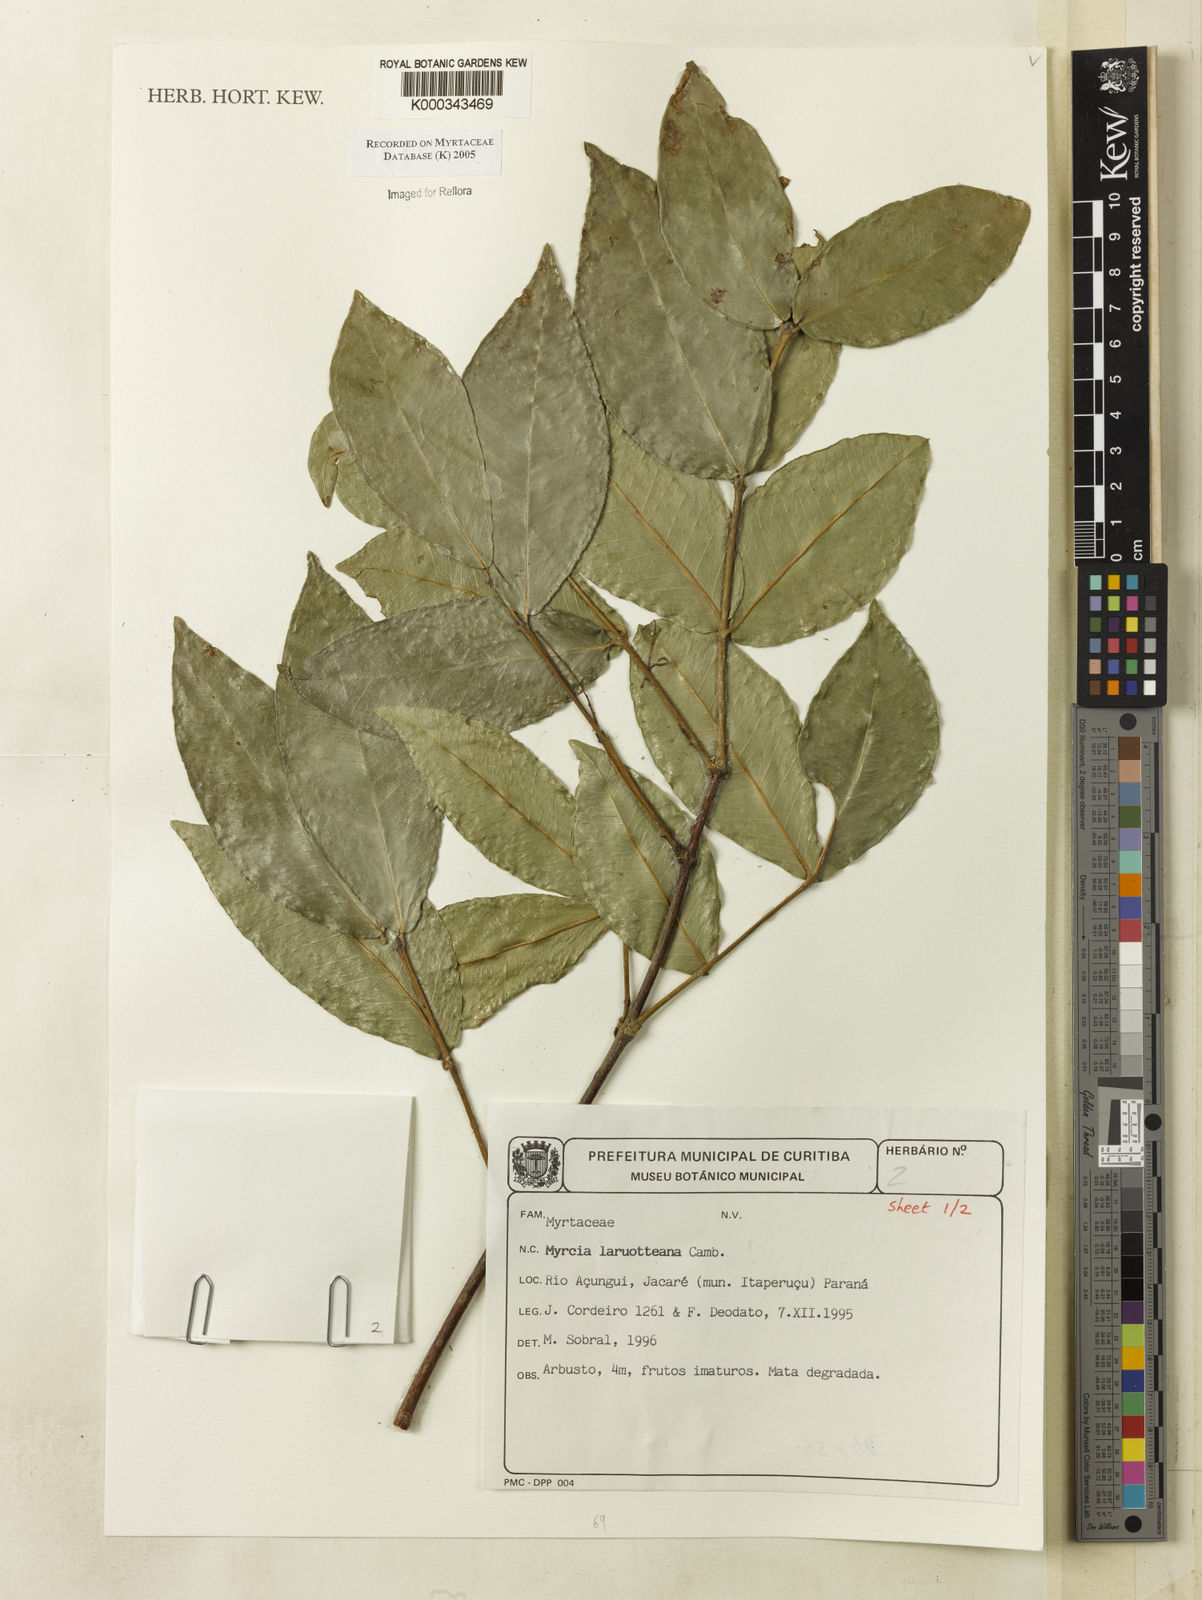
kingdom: Plantae
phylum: Tracheophyta
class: Magnoliopsida
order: Myrtales
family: Myrtaceae
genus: Myrcia
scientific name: Myrcia laruotteana
